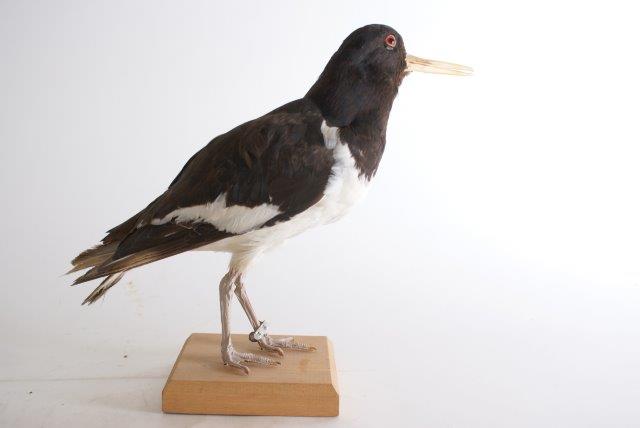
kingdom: Animalia
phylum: Chordata
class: Aves
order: Charadriiformes
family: Haematopodidae
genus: Haematopus
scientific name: Haematopus ostralegus
